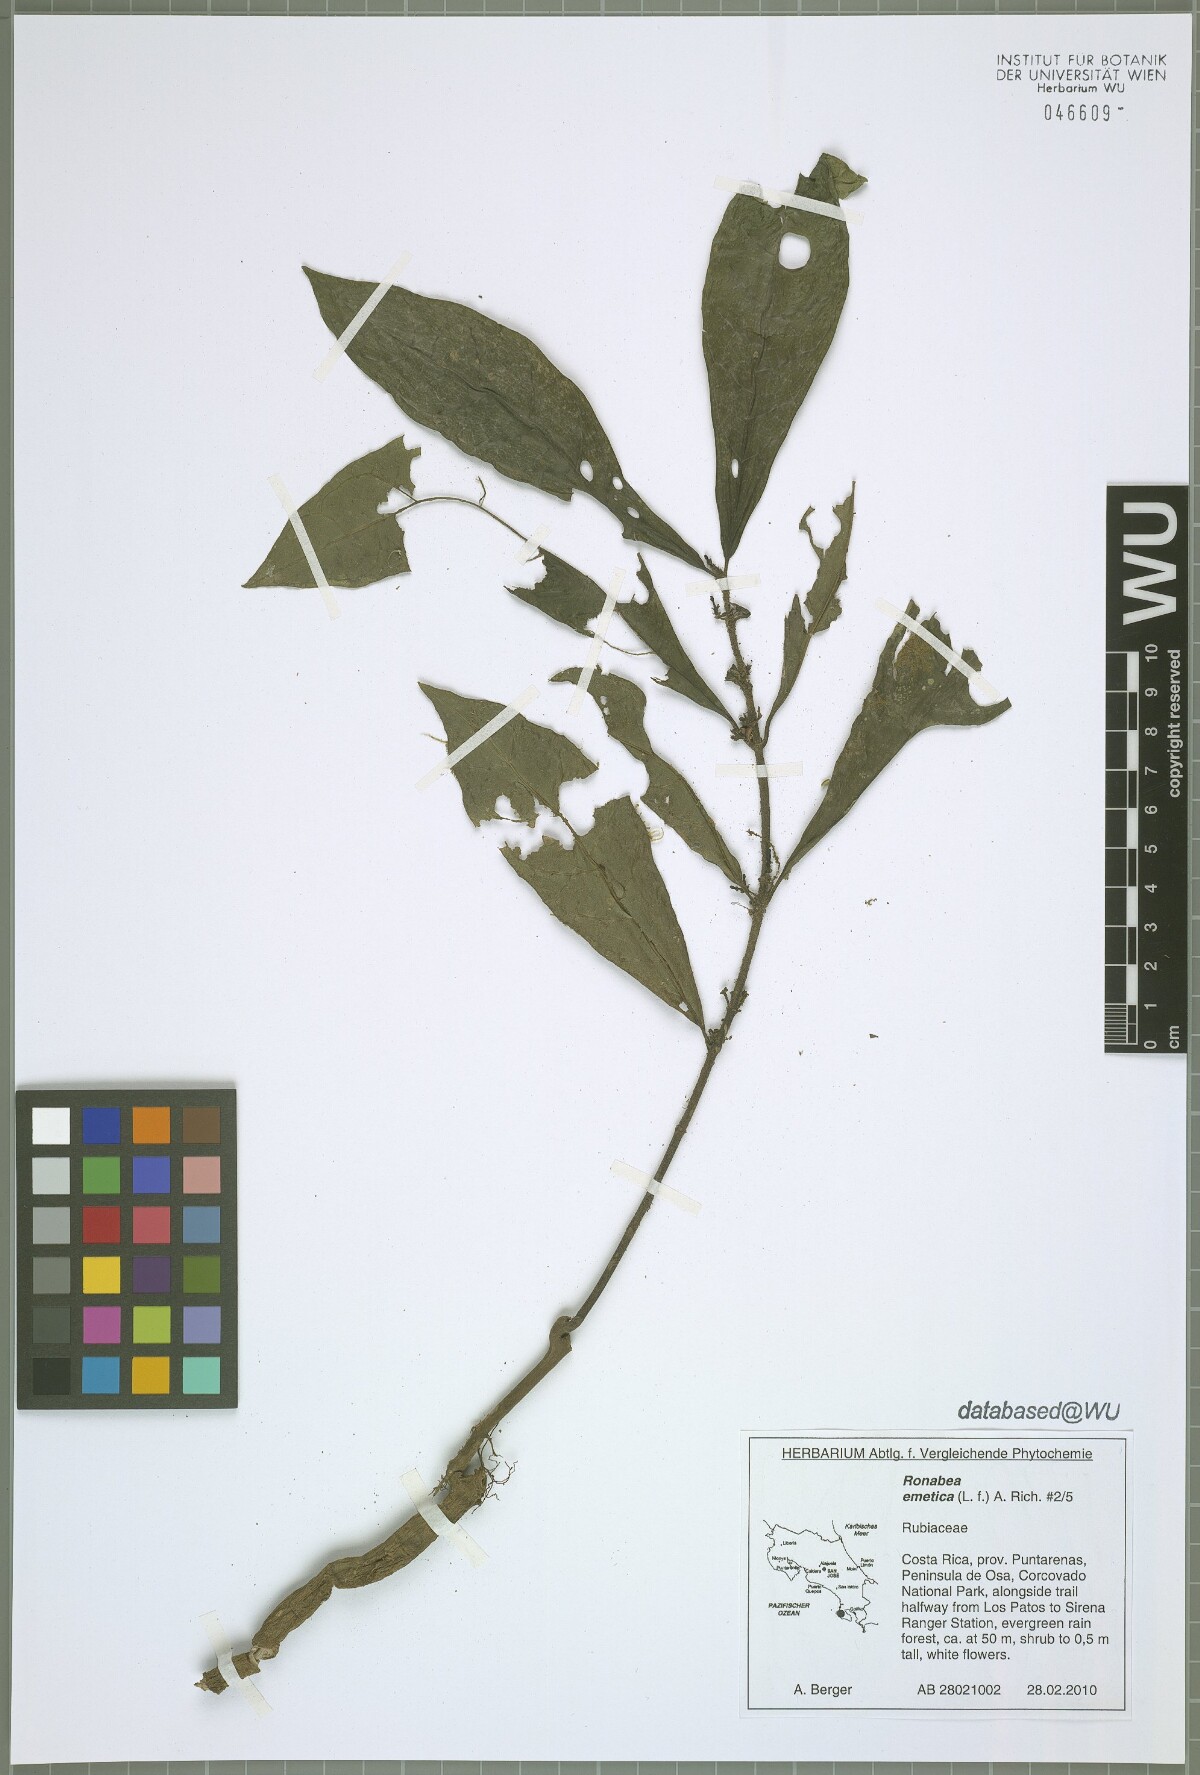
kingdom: Plantae
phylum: Tracheophyta
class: Magnoliopsida
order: Gentianales
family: Rubiaceae
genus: Ronabea
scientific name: Ronabea emetica
